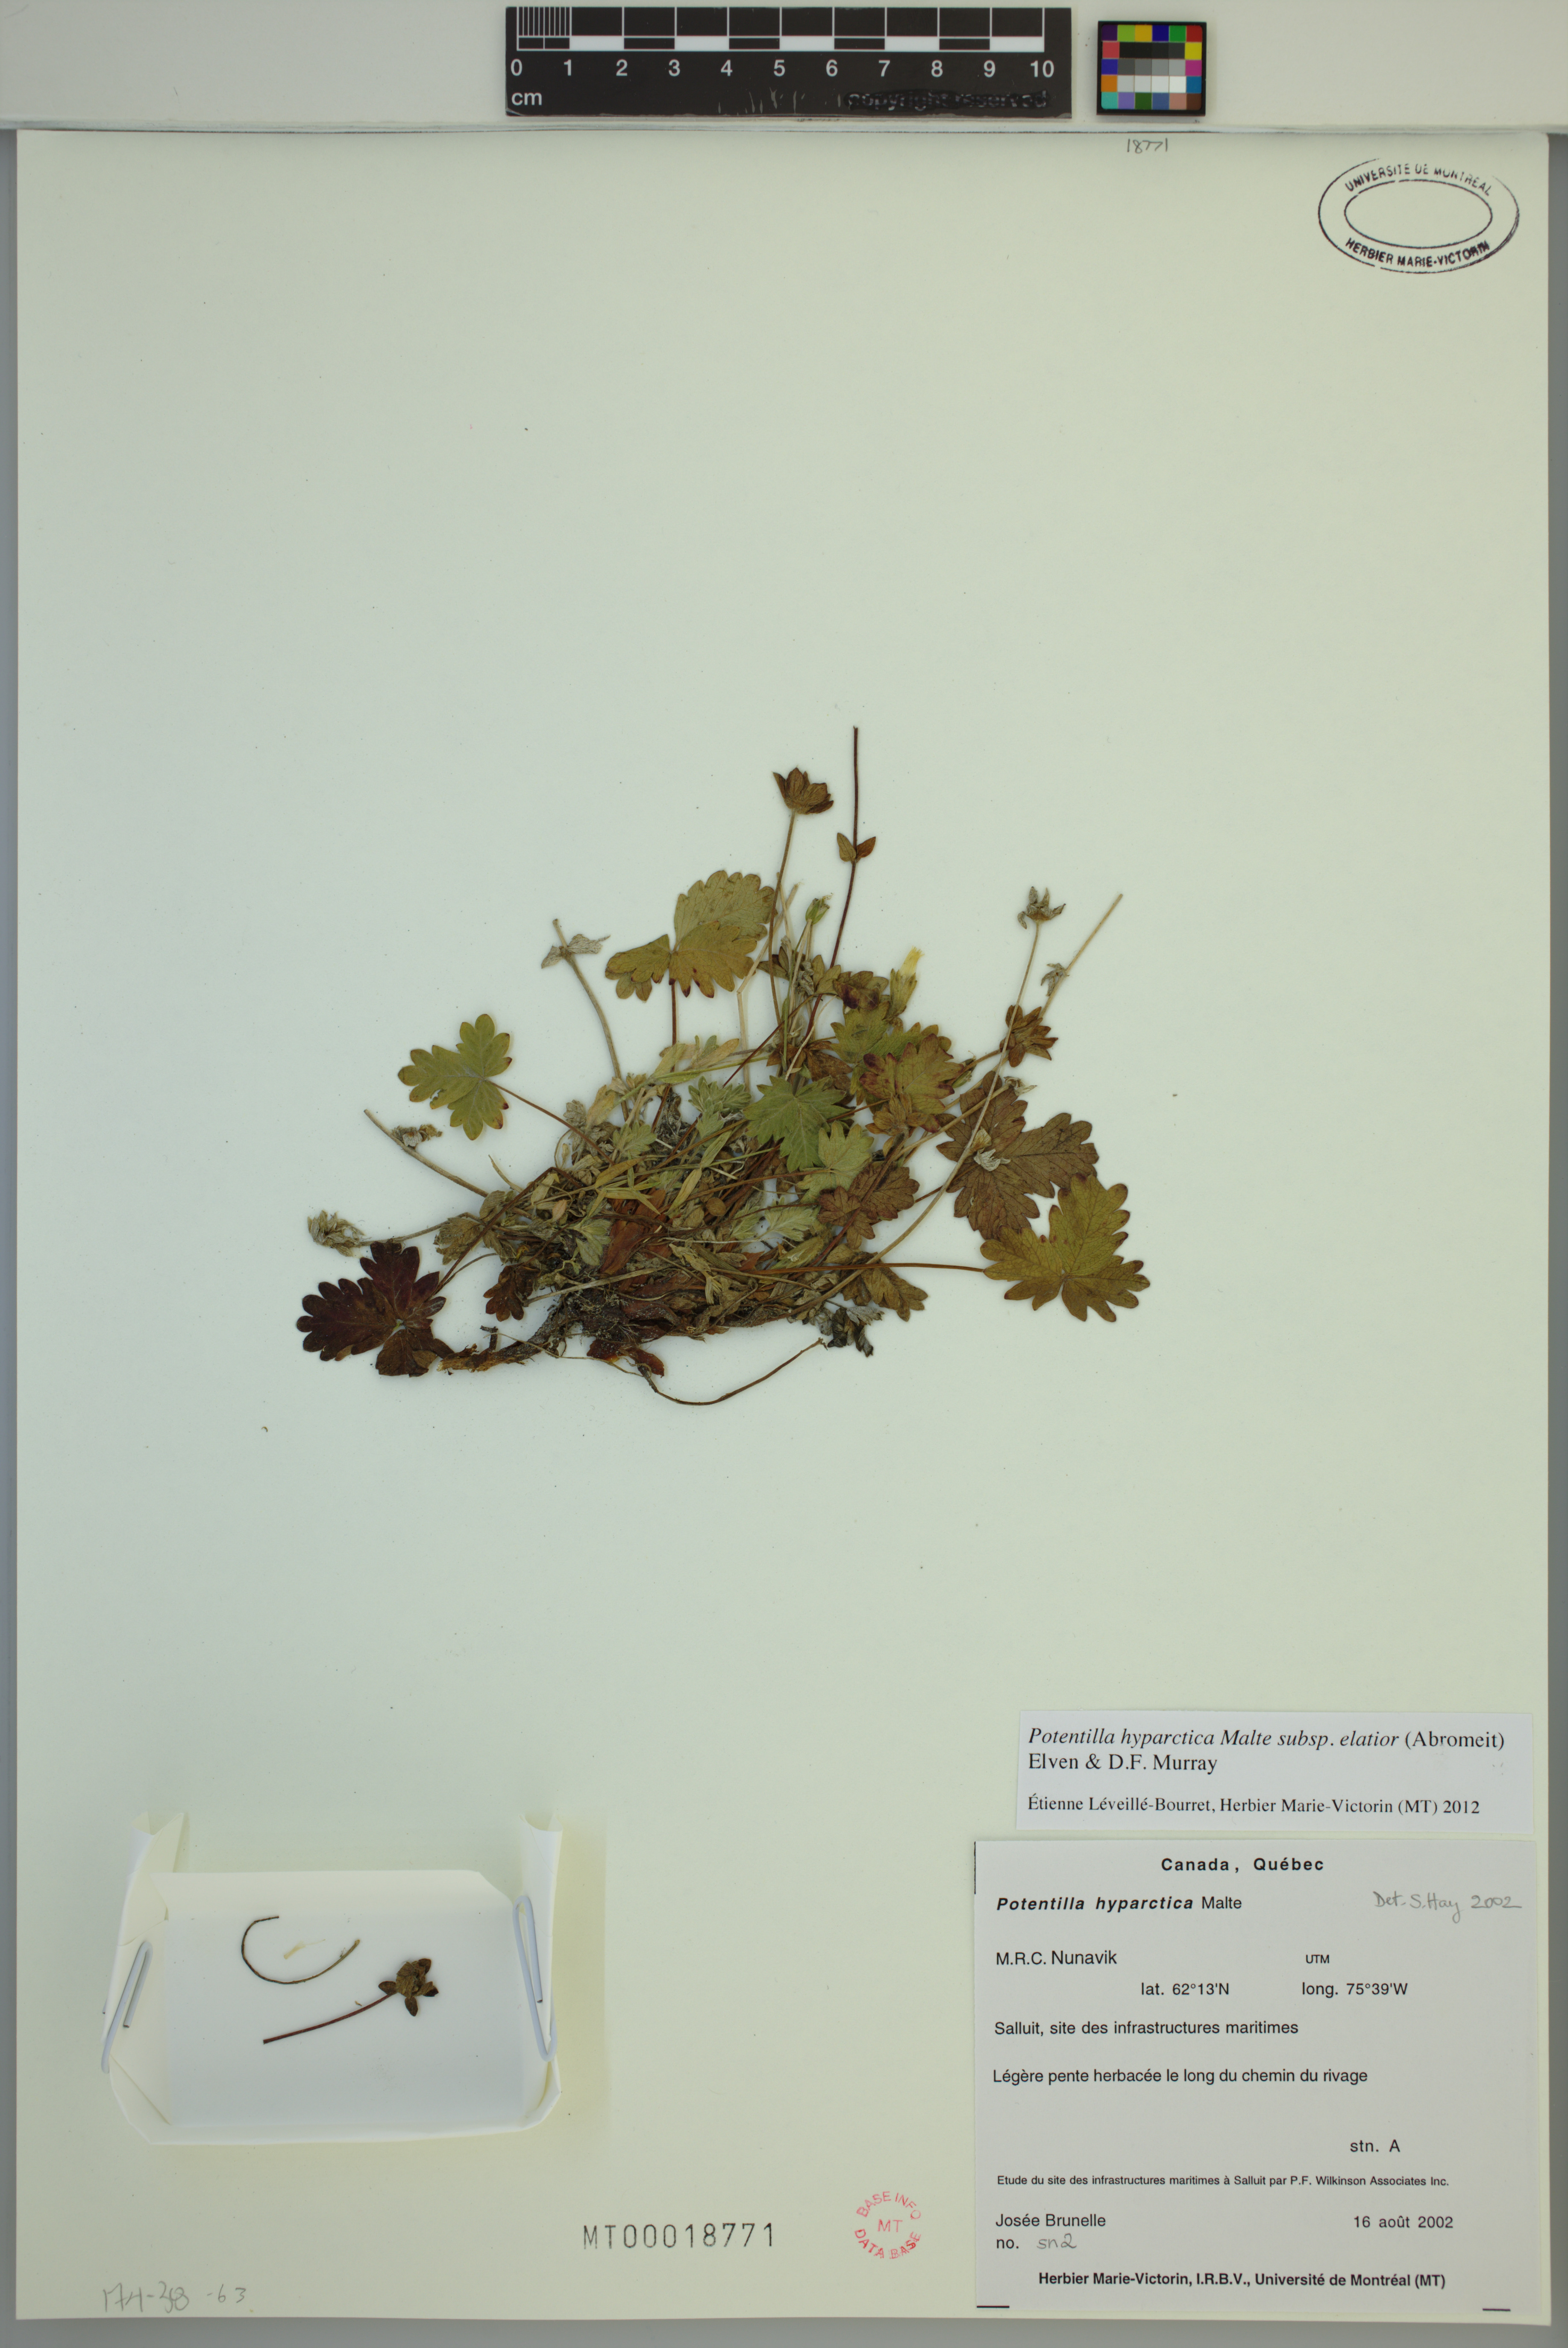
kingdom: Plantae
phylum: Tracheophyta
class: Magnoliopsida
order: Rosales
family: Rosaceae
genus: Potentilla
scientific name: Potentilla hyparctica
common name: Arctic cinquefoil
